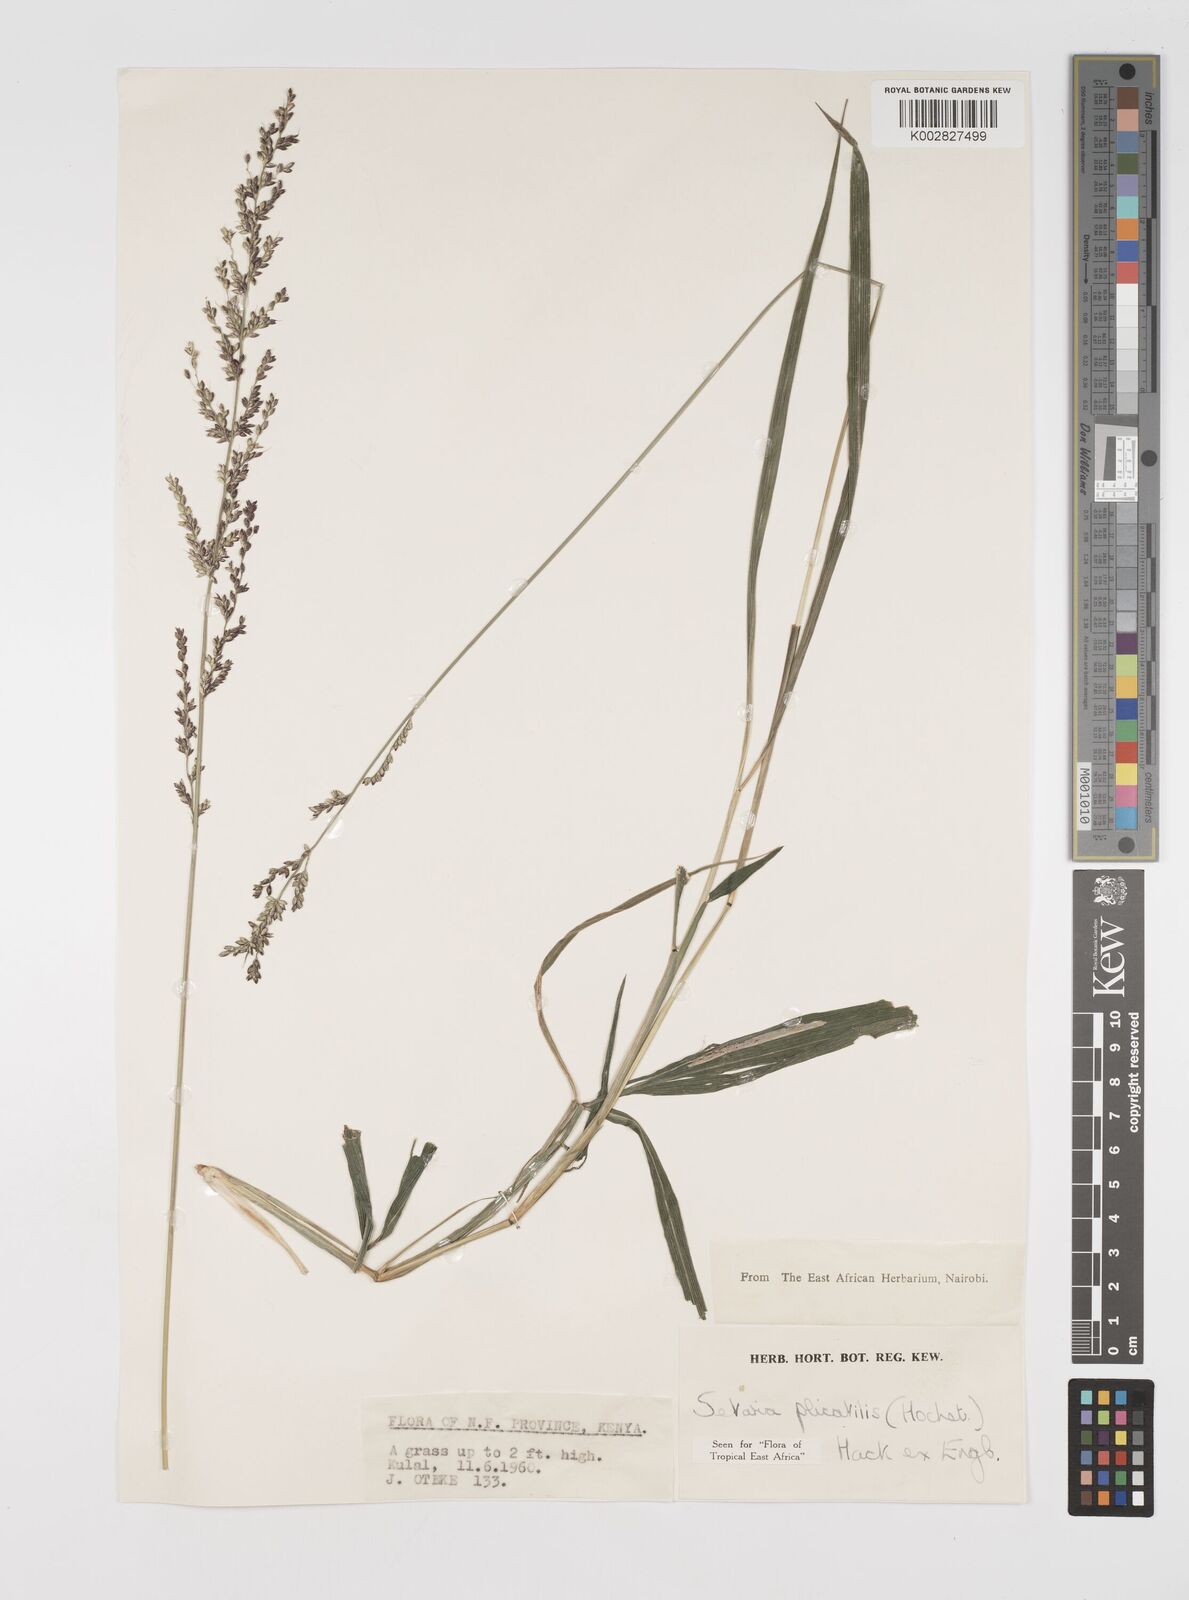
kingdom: Plantae
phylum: Tracheophyta
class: Liliopsida
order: Poales
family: Poaceae
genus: Setaria
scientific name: Setaria megaphylla
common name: Bigleaf bristlegrass
